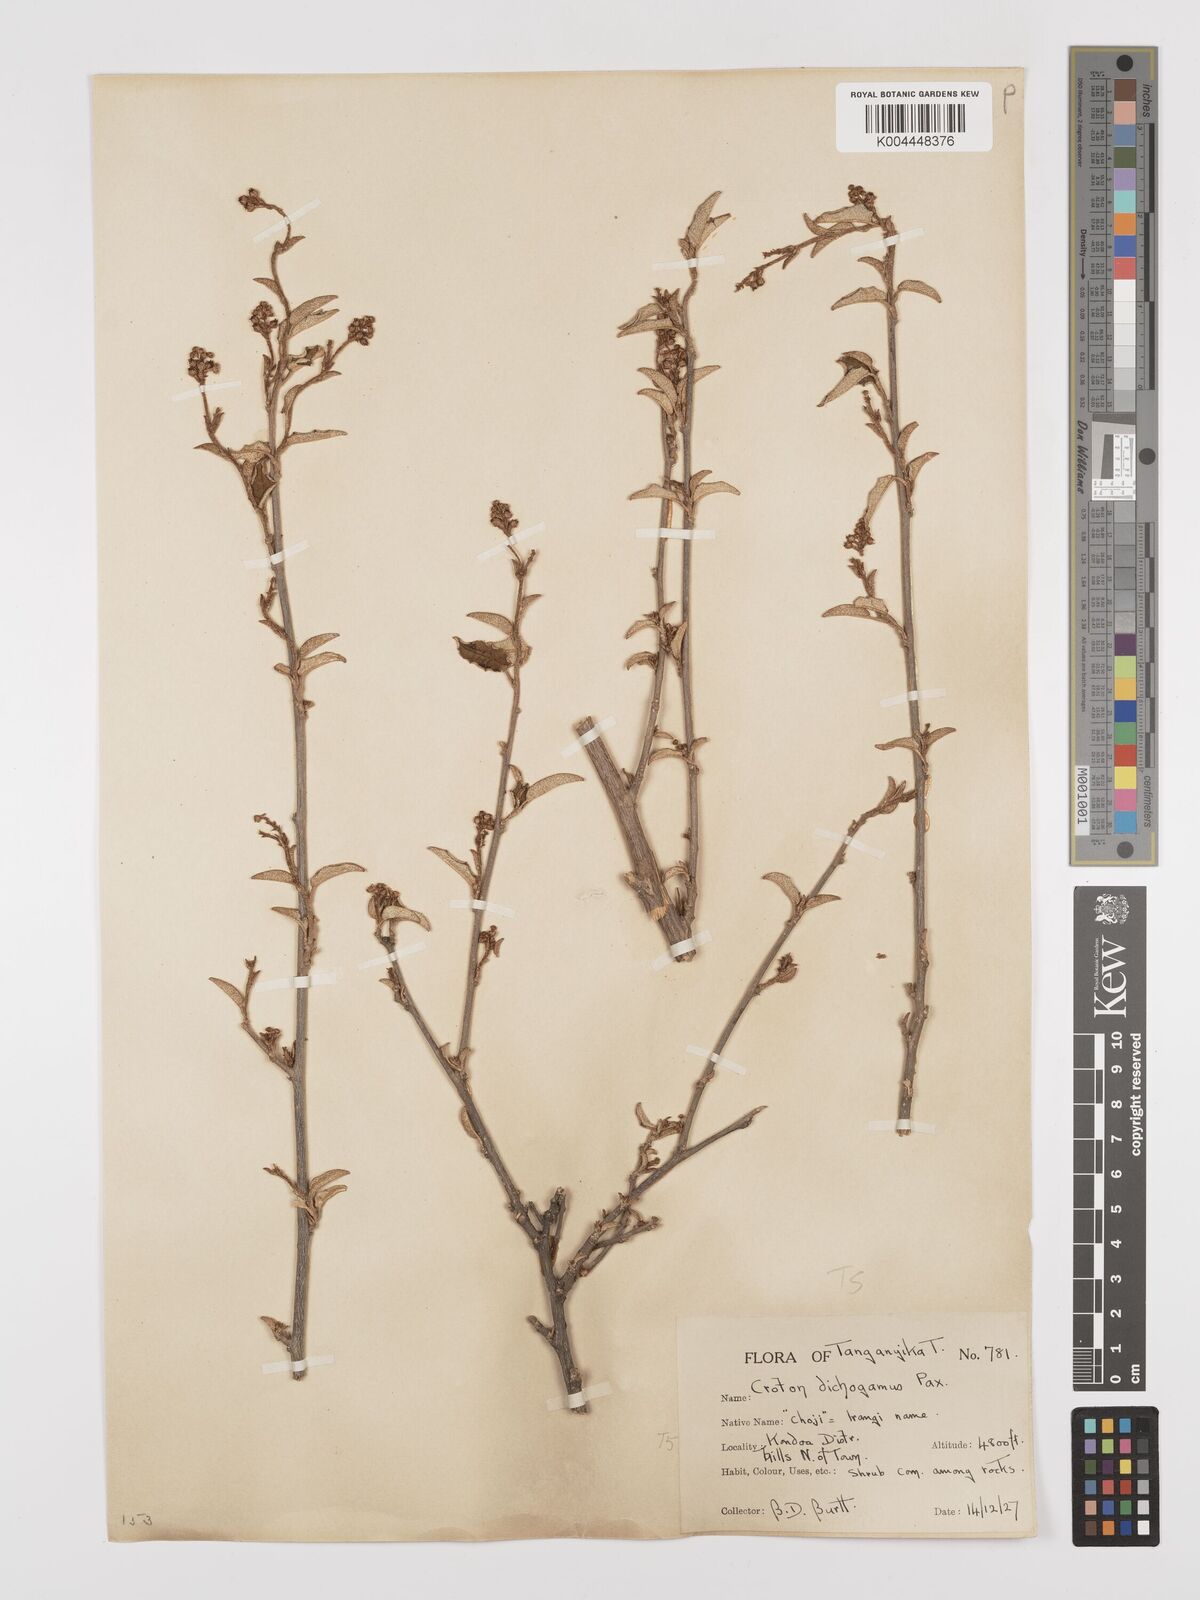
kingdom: Plantae
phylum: Tracheophyta
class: Magnoliopsida
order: Malpighiales
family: Euphorbiaceae
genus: Croton
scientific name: Croton dichogamus
